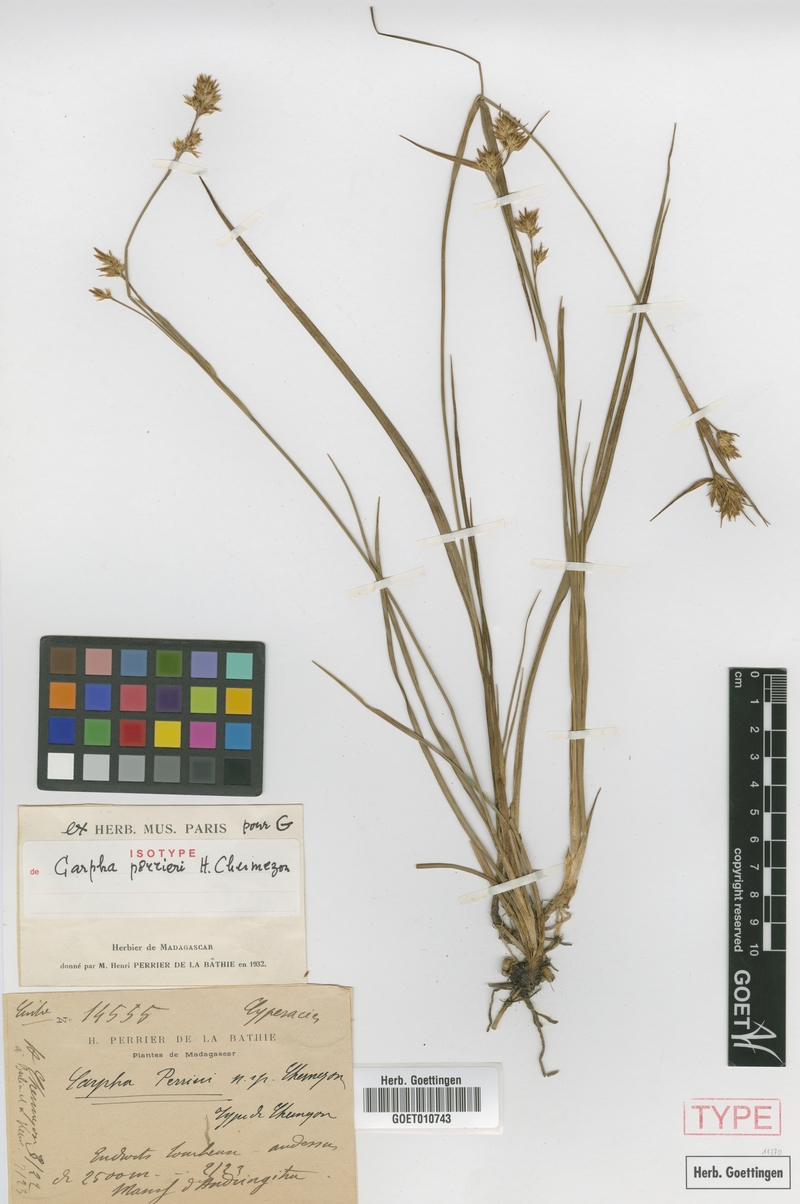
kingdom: Plantae
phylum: Tracheophyta
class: Liliopsida
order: Poales
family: Cyperaceae
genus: Costularia
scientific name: Costularia melicoides
